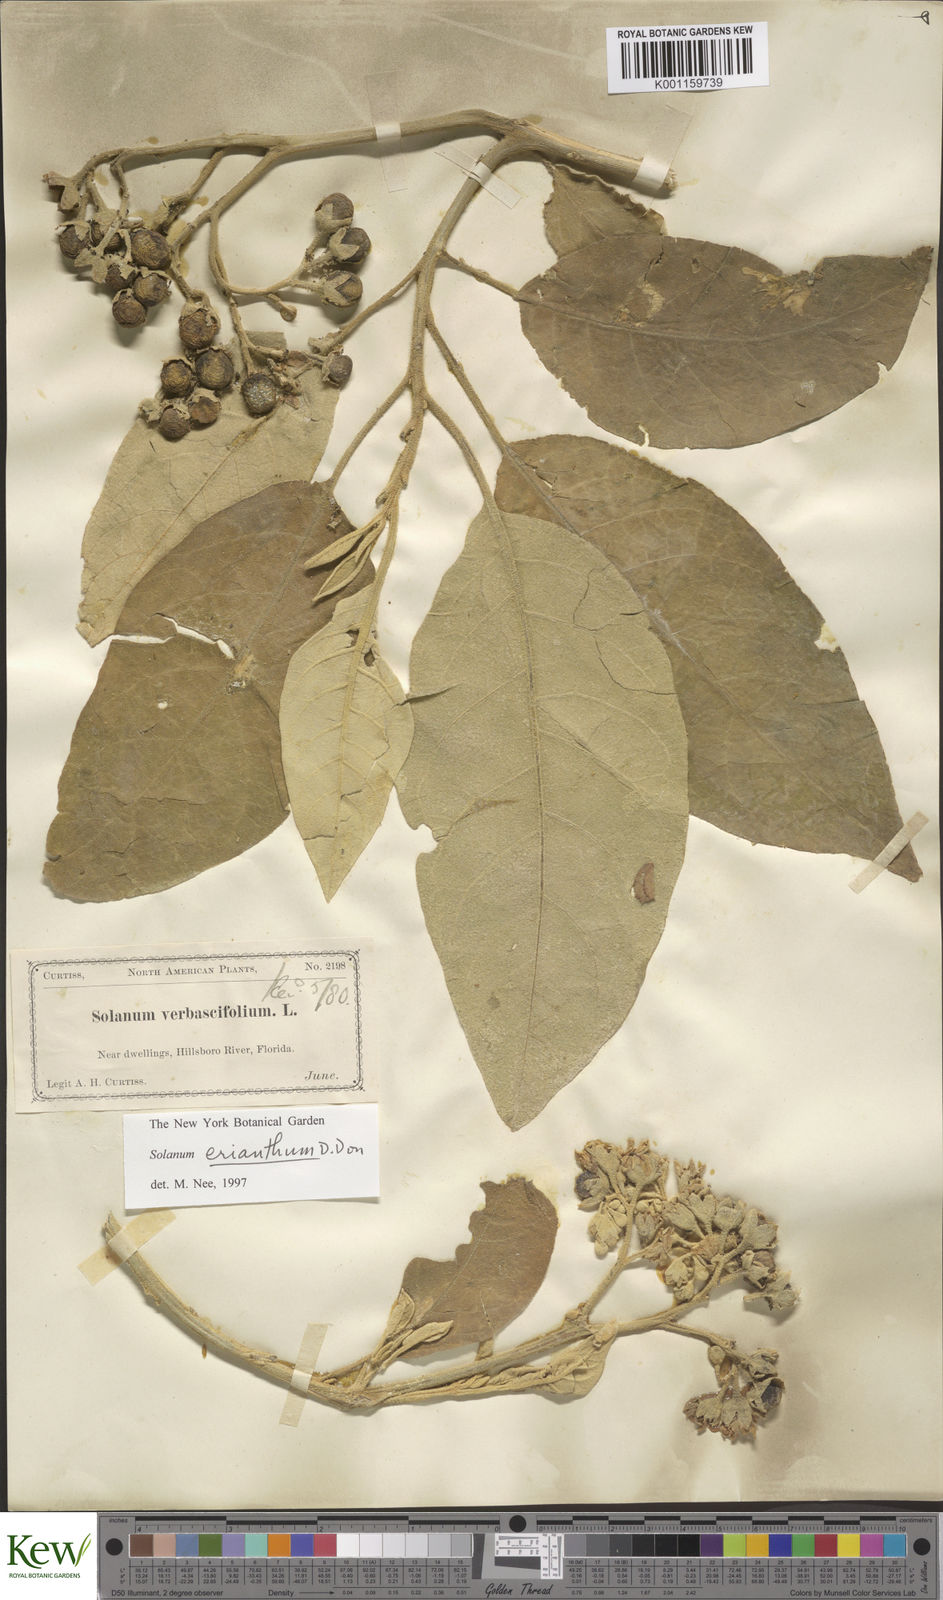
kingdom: Plantae
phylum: Tracheophyta
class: Magnoliopsida
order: Solanales
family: Solanaceae
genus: Solanum
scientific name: Solanum donianum
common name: Mullein nightshade
